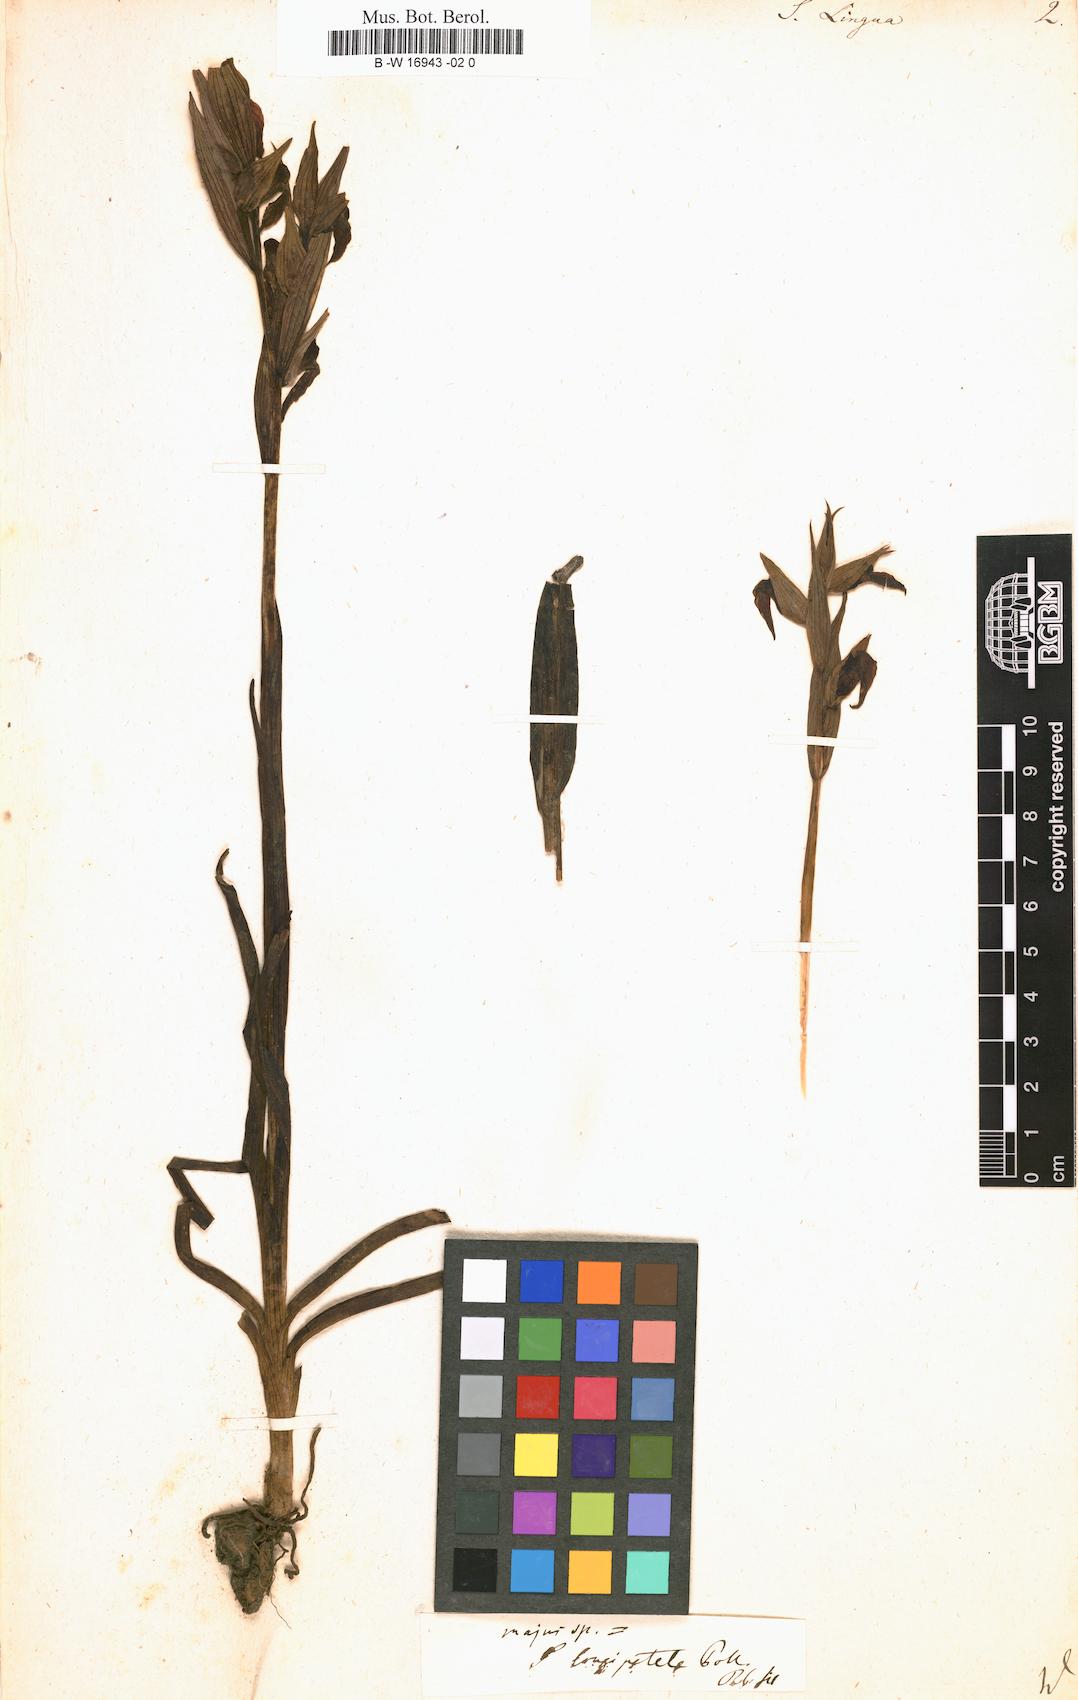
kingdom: Plantae
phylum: Tracheophyta
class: Liliopsida
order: Asparagales
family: Orchidaceae
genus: Ophrys
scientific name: Ophrys fusca
